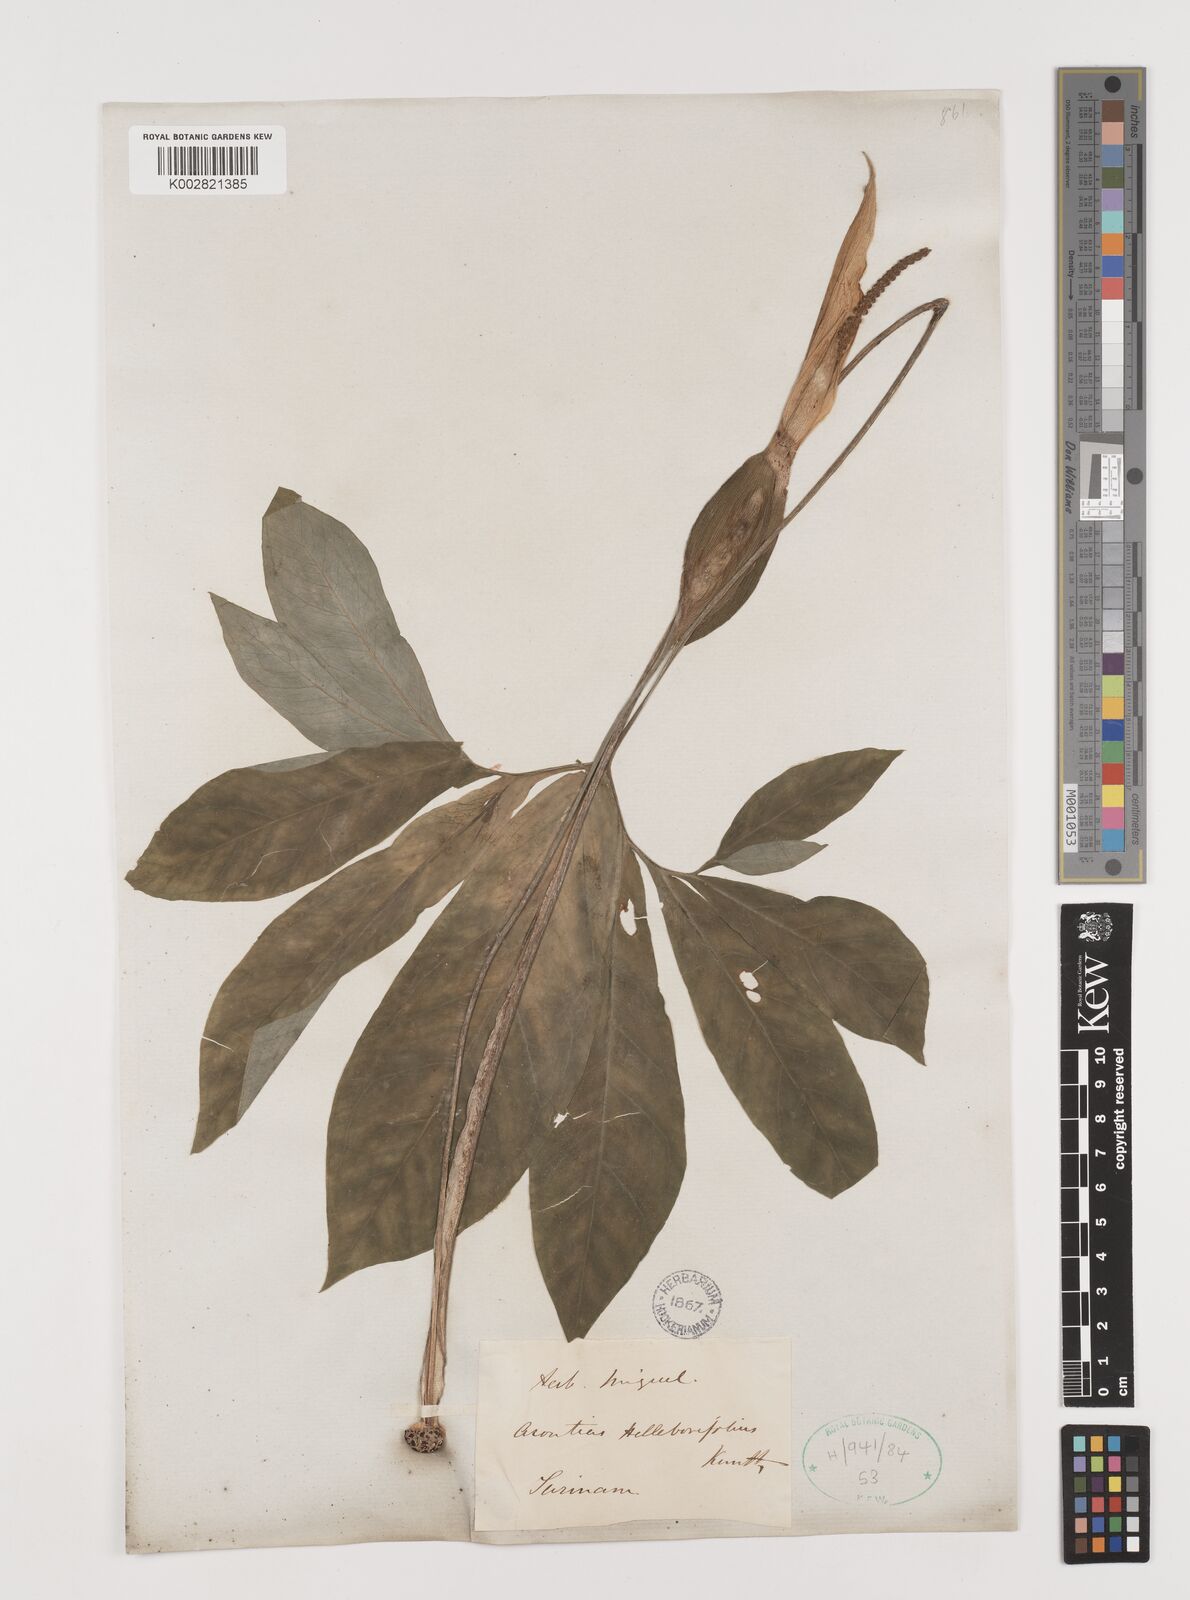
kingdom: Plantae
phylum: Tracheophyta
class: Liliopsida
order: Alismatales
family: Araceae
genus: Xanthosoma
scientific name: Xanthosoma helleborifolium
